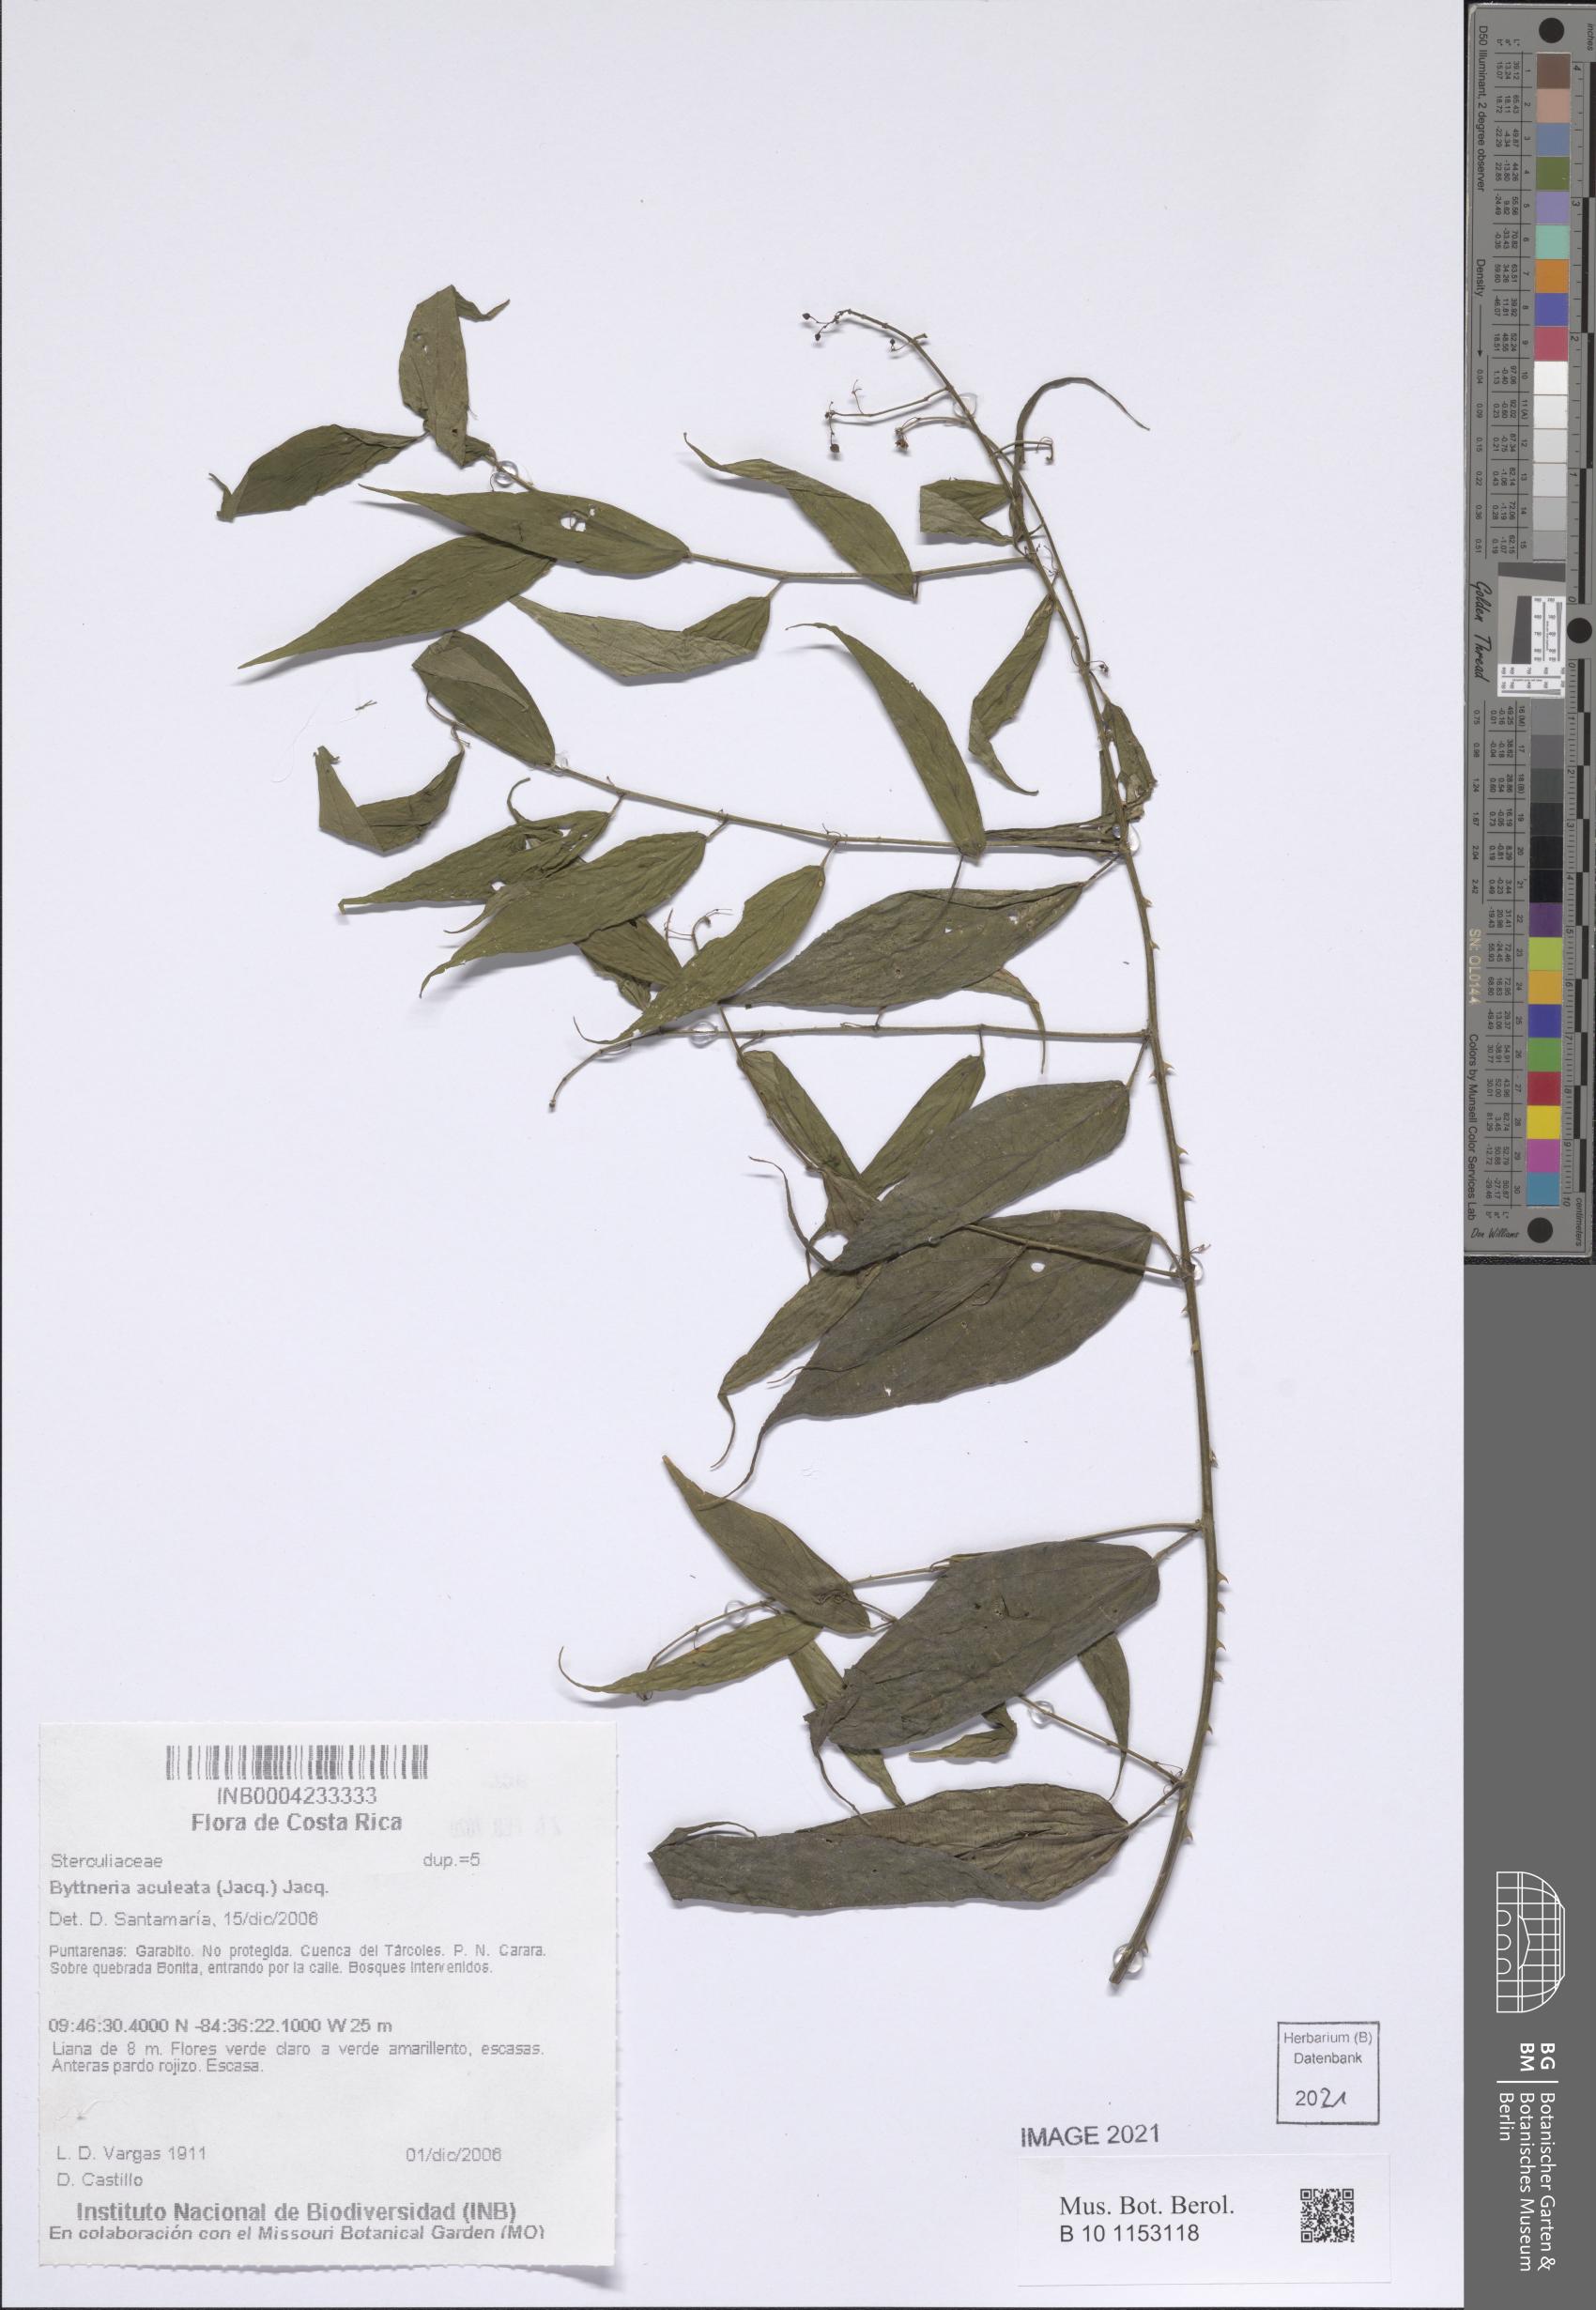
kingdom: Plantae
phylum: Tracheophyta
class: Magnoliopsida
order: Malvales
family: Malvaceae
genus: Byttneria
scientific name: Byttneria aculeata
